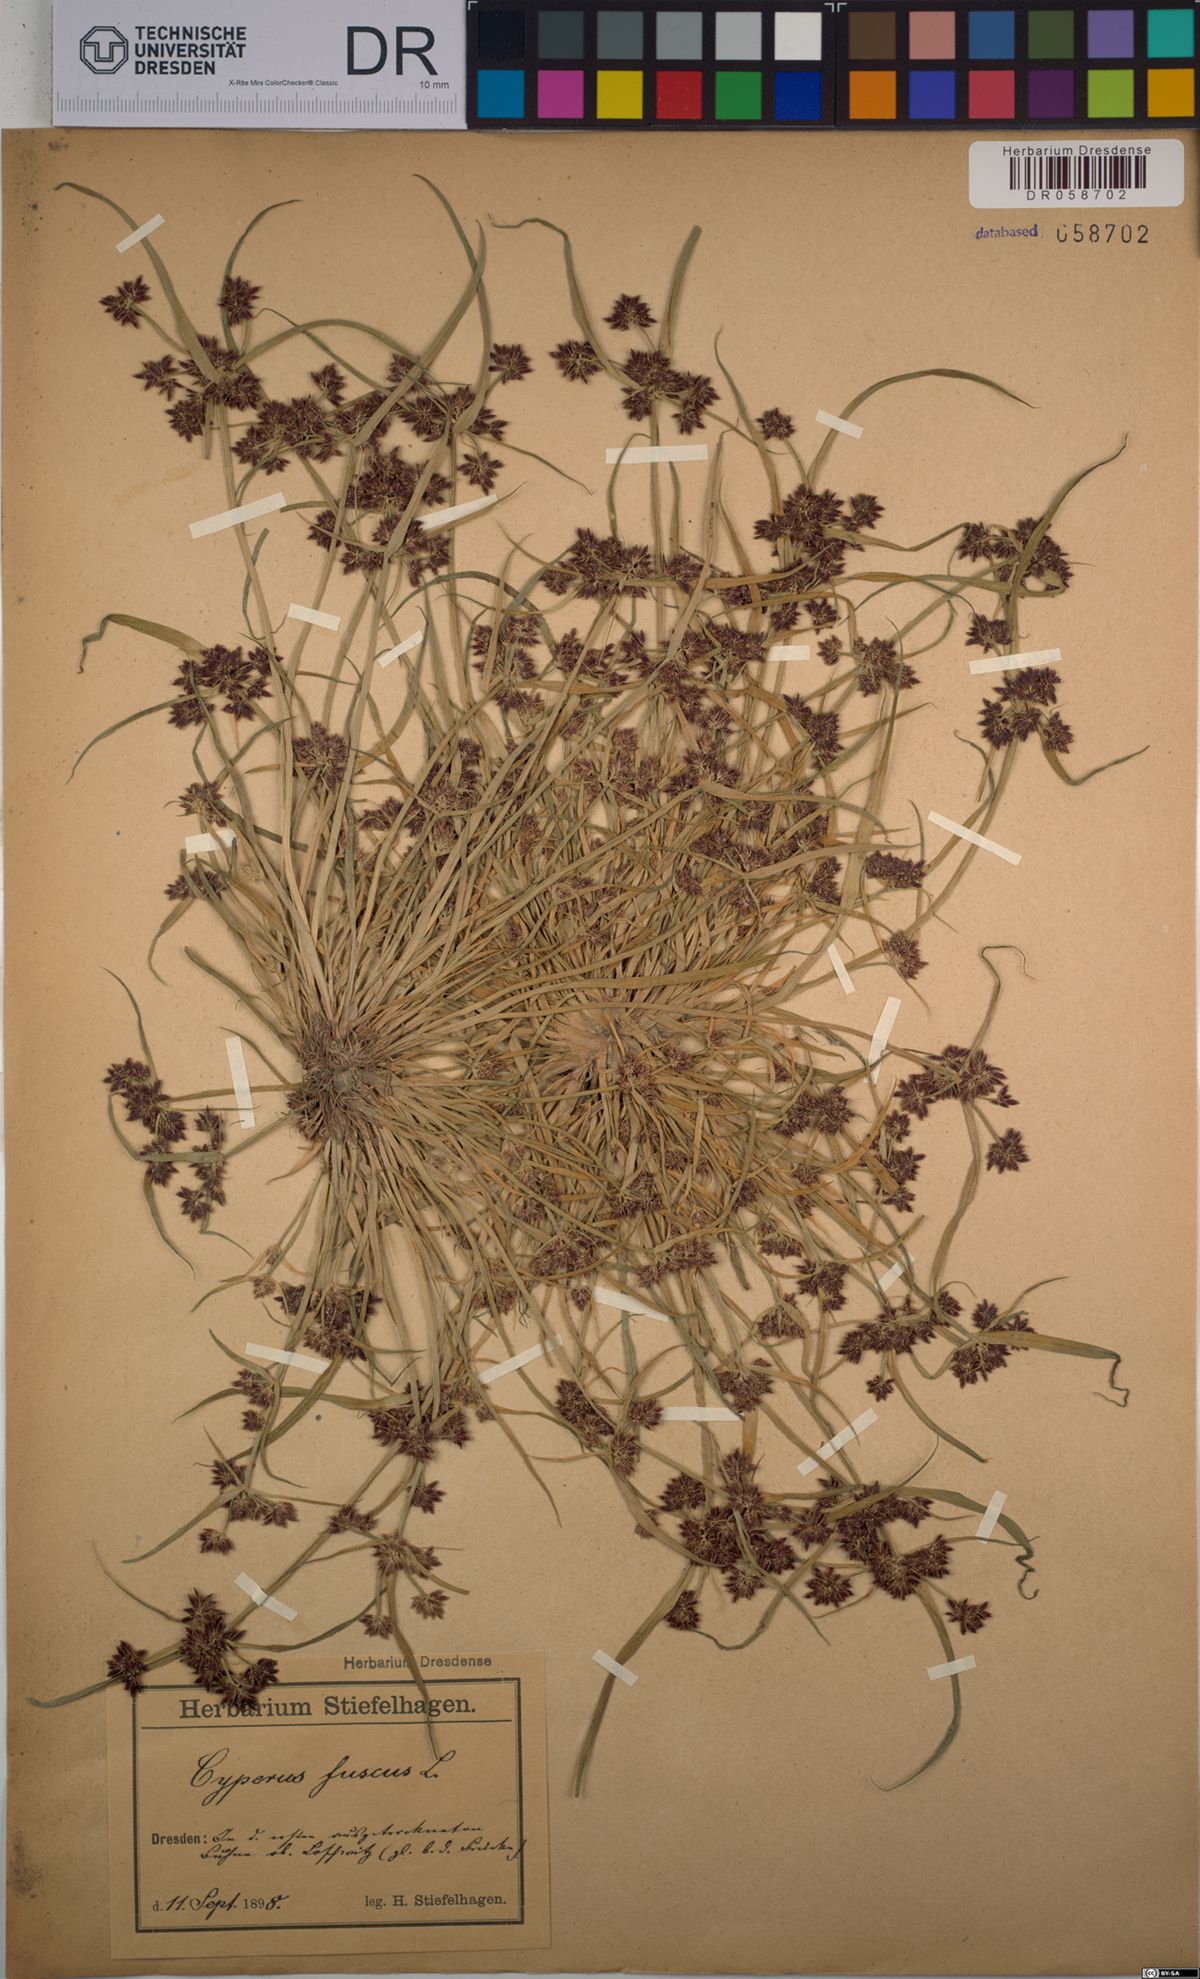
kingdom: Plantae
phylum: Tracheophyta
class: Liliopsida
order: Poales
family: Cyperaceae
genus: Cyperus
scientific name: Cyperus fuscus
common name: Brown galingale
